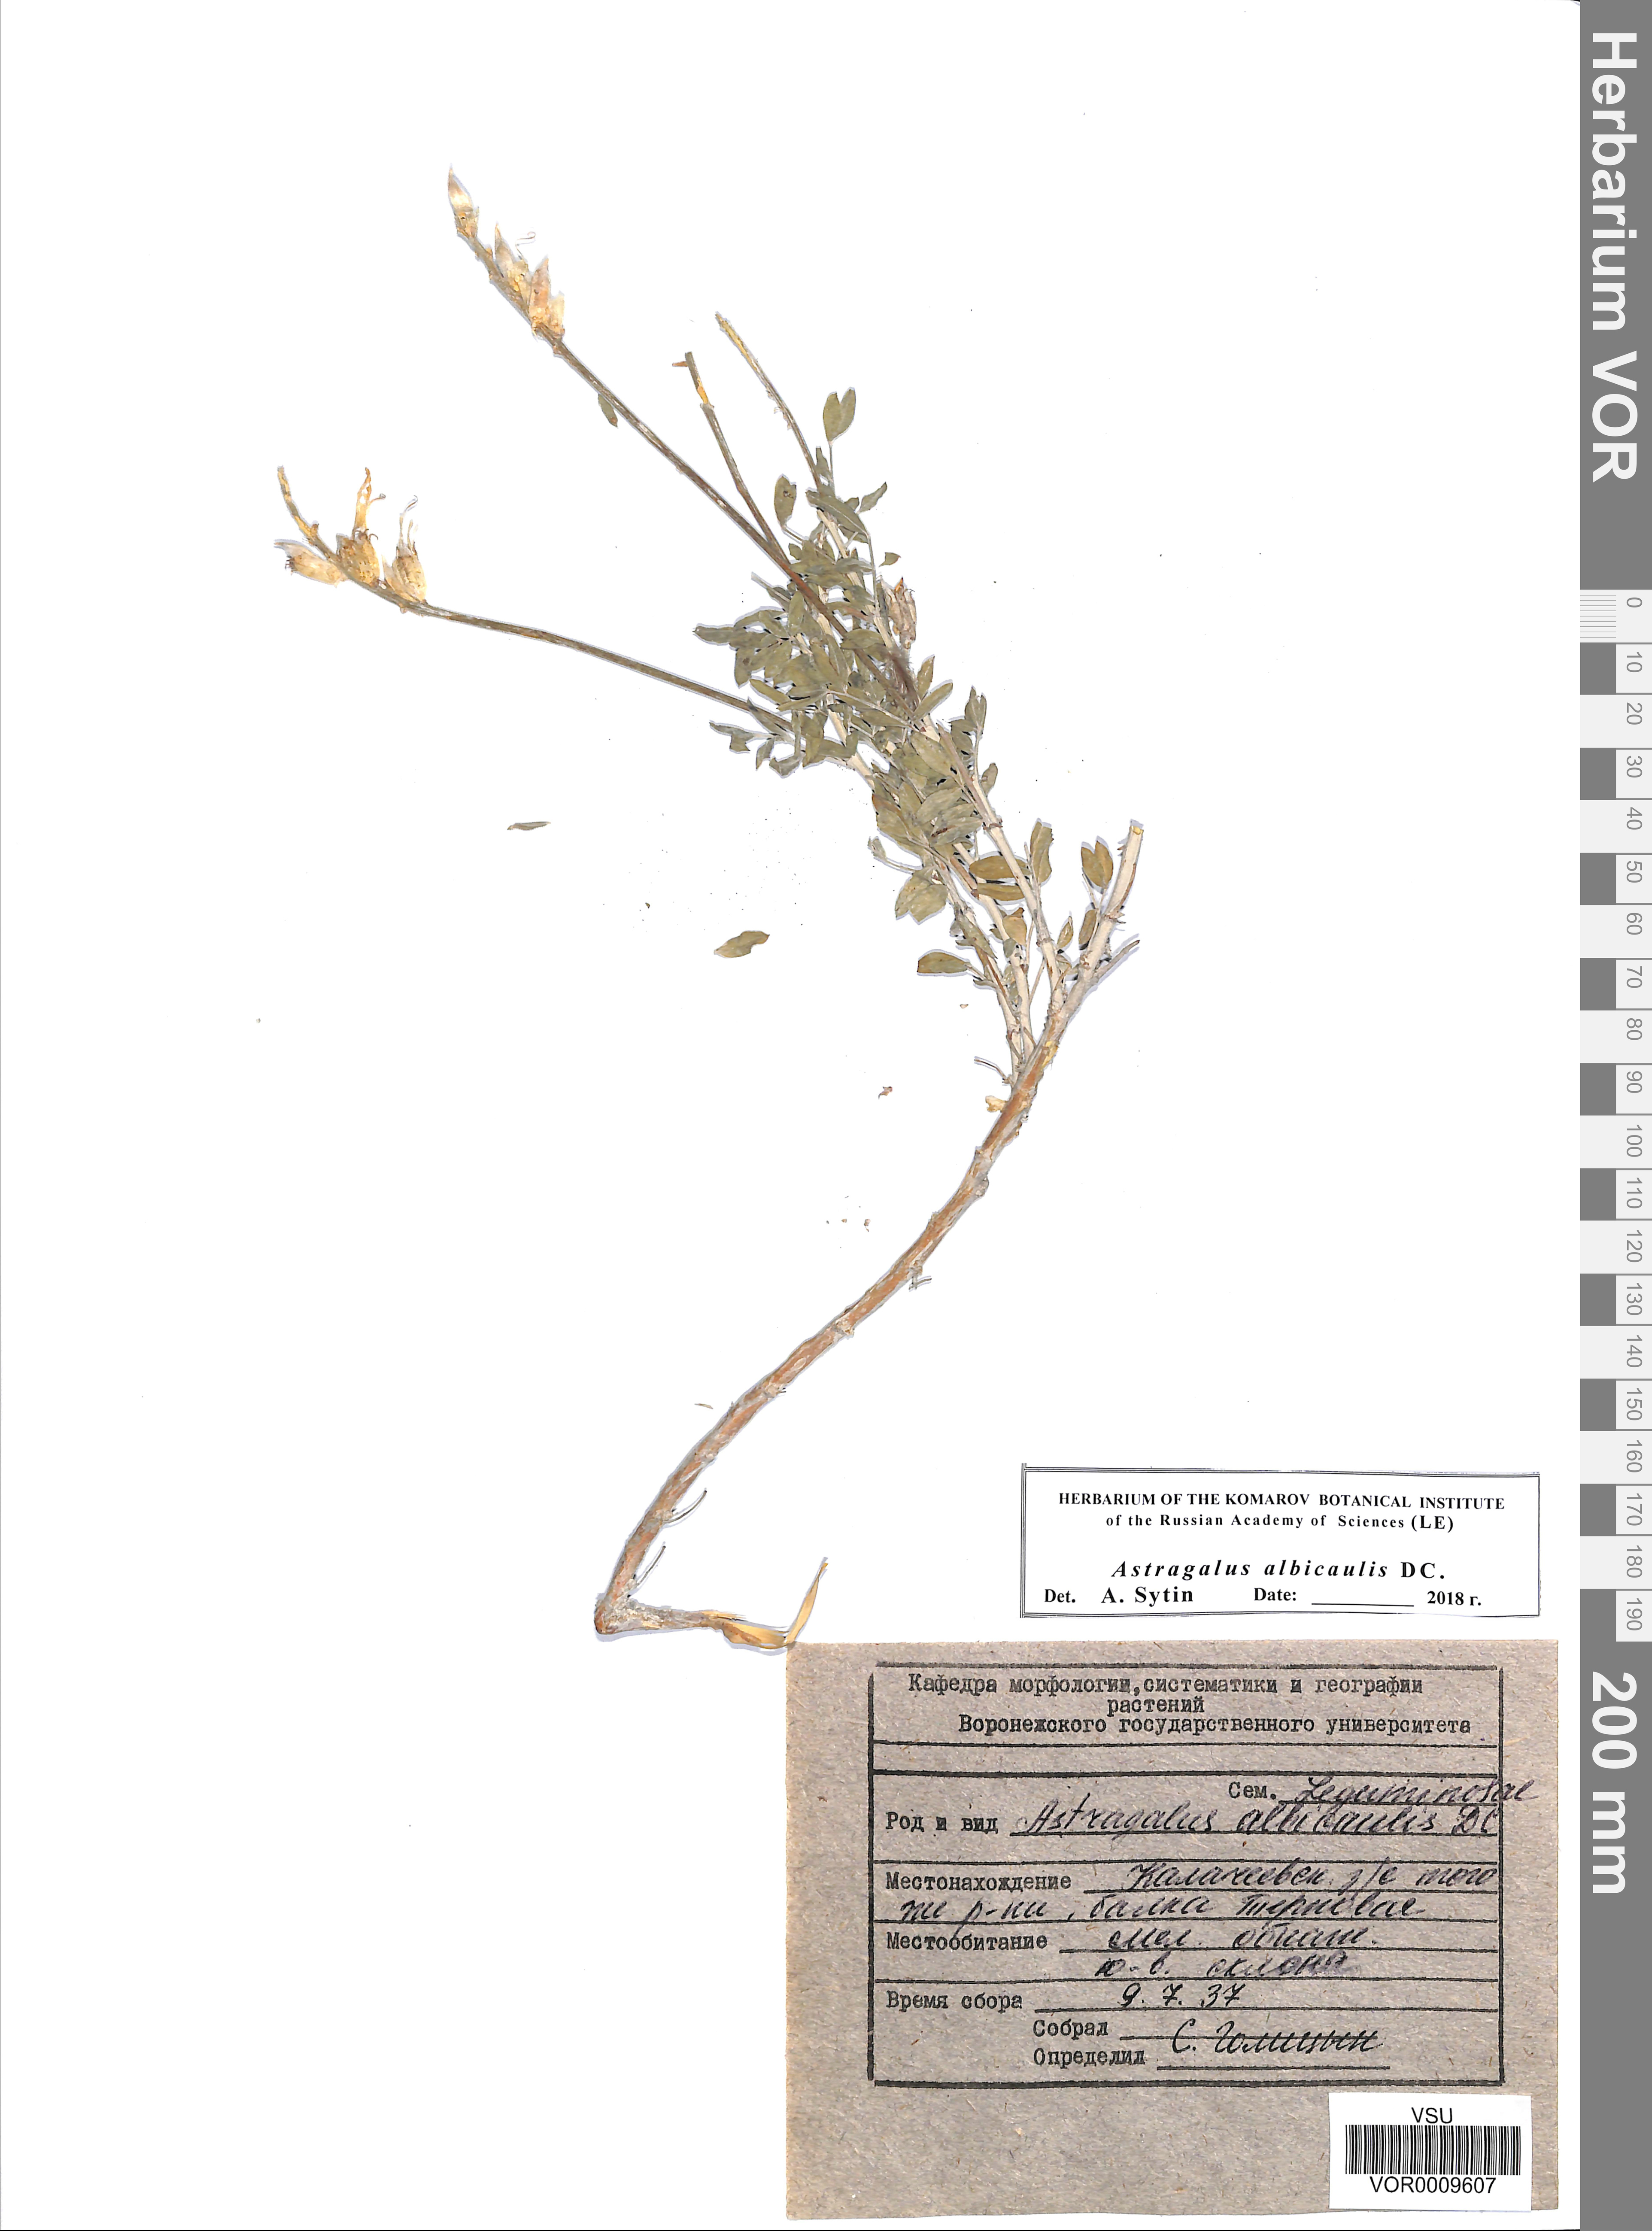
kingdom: Plantae
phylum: Tracheophyta
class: Magnoliopsida
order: Fabales
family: Fabaceae
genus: Astragalus
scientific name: Astragalus albicaulis
